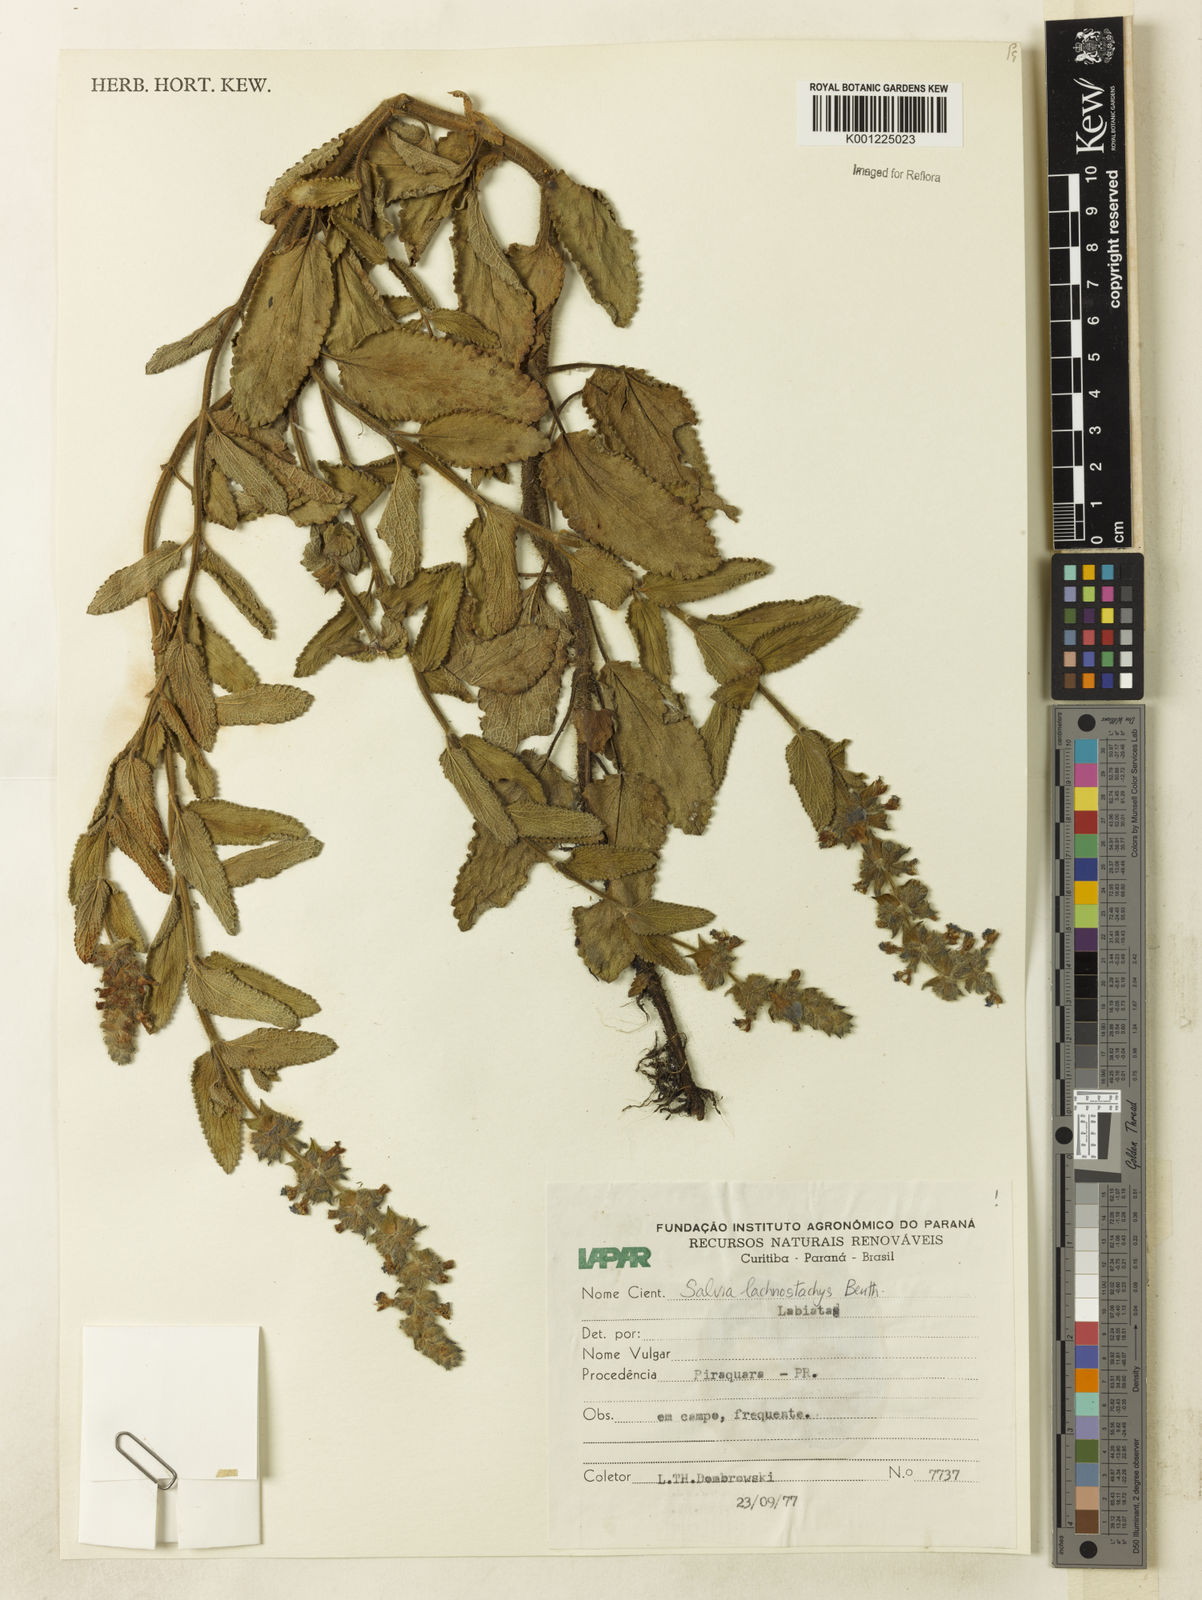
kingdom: Plantae
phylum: Tracheophyta
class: Magnoliopsida
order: Lamiales
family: Lamiaceae
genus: Salvia
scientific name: Salvia lachnostachys
